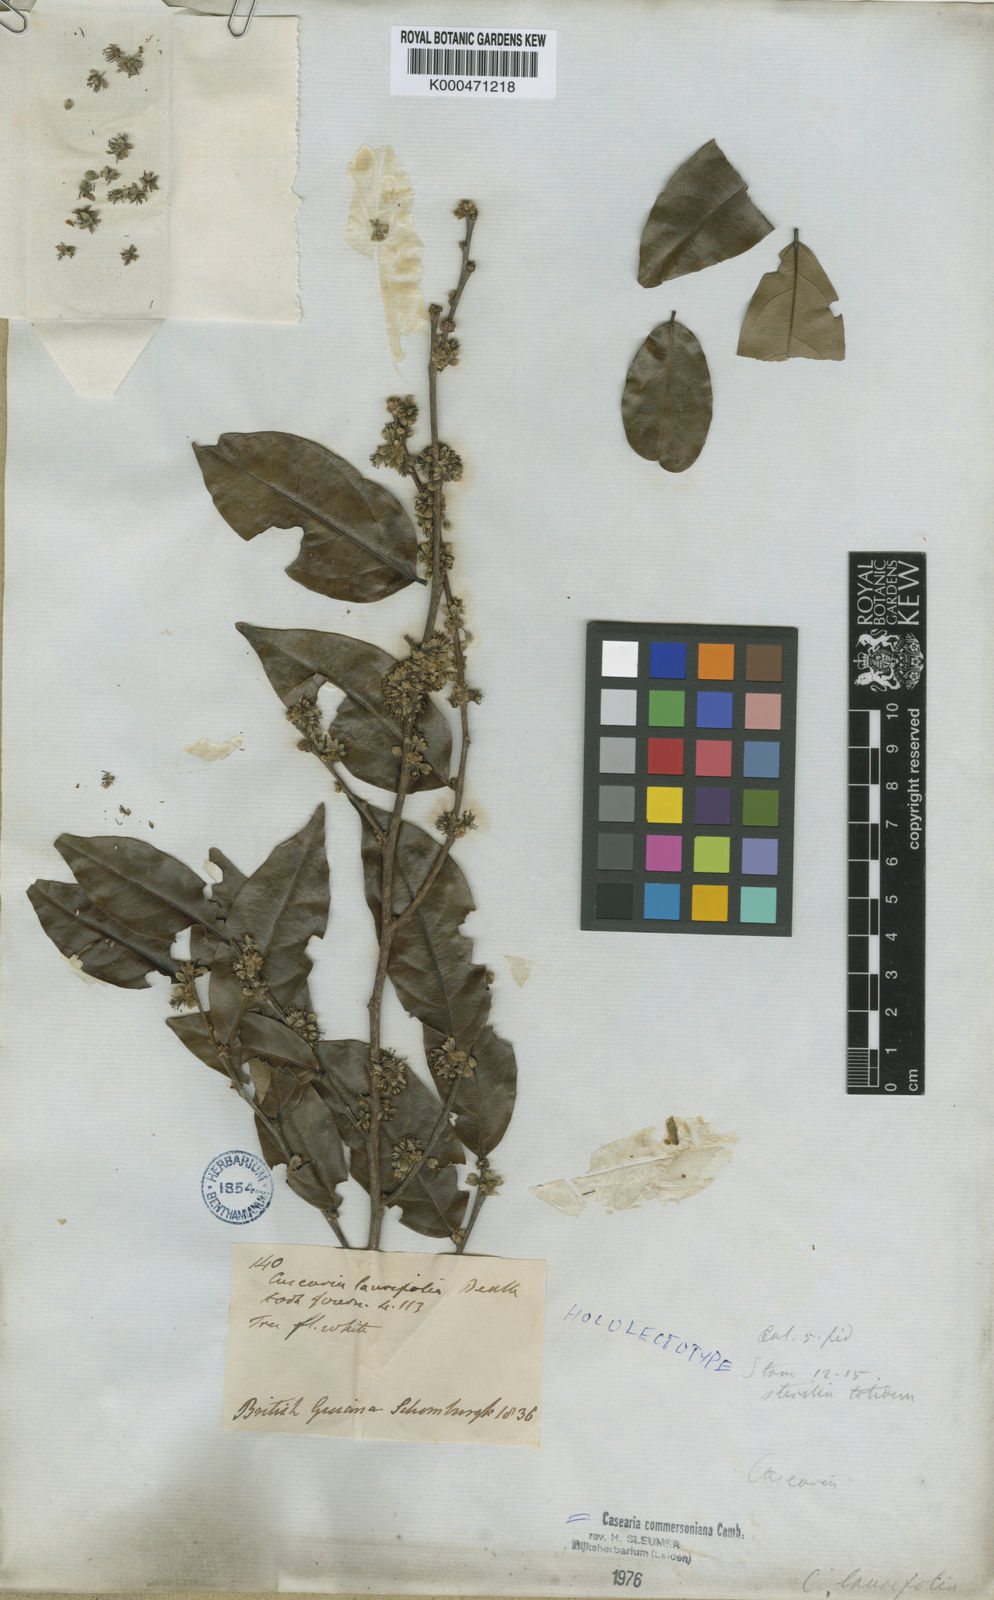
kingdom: Plantae
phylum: Tracheophyta
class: Magnoliopsida
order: Malpighiales
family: Salicaceae
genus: Piparea
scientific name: Piparea dentata
